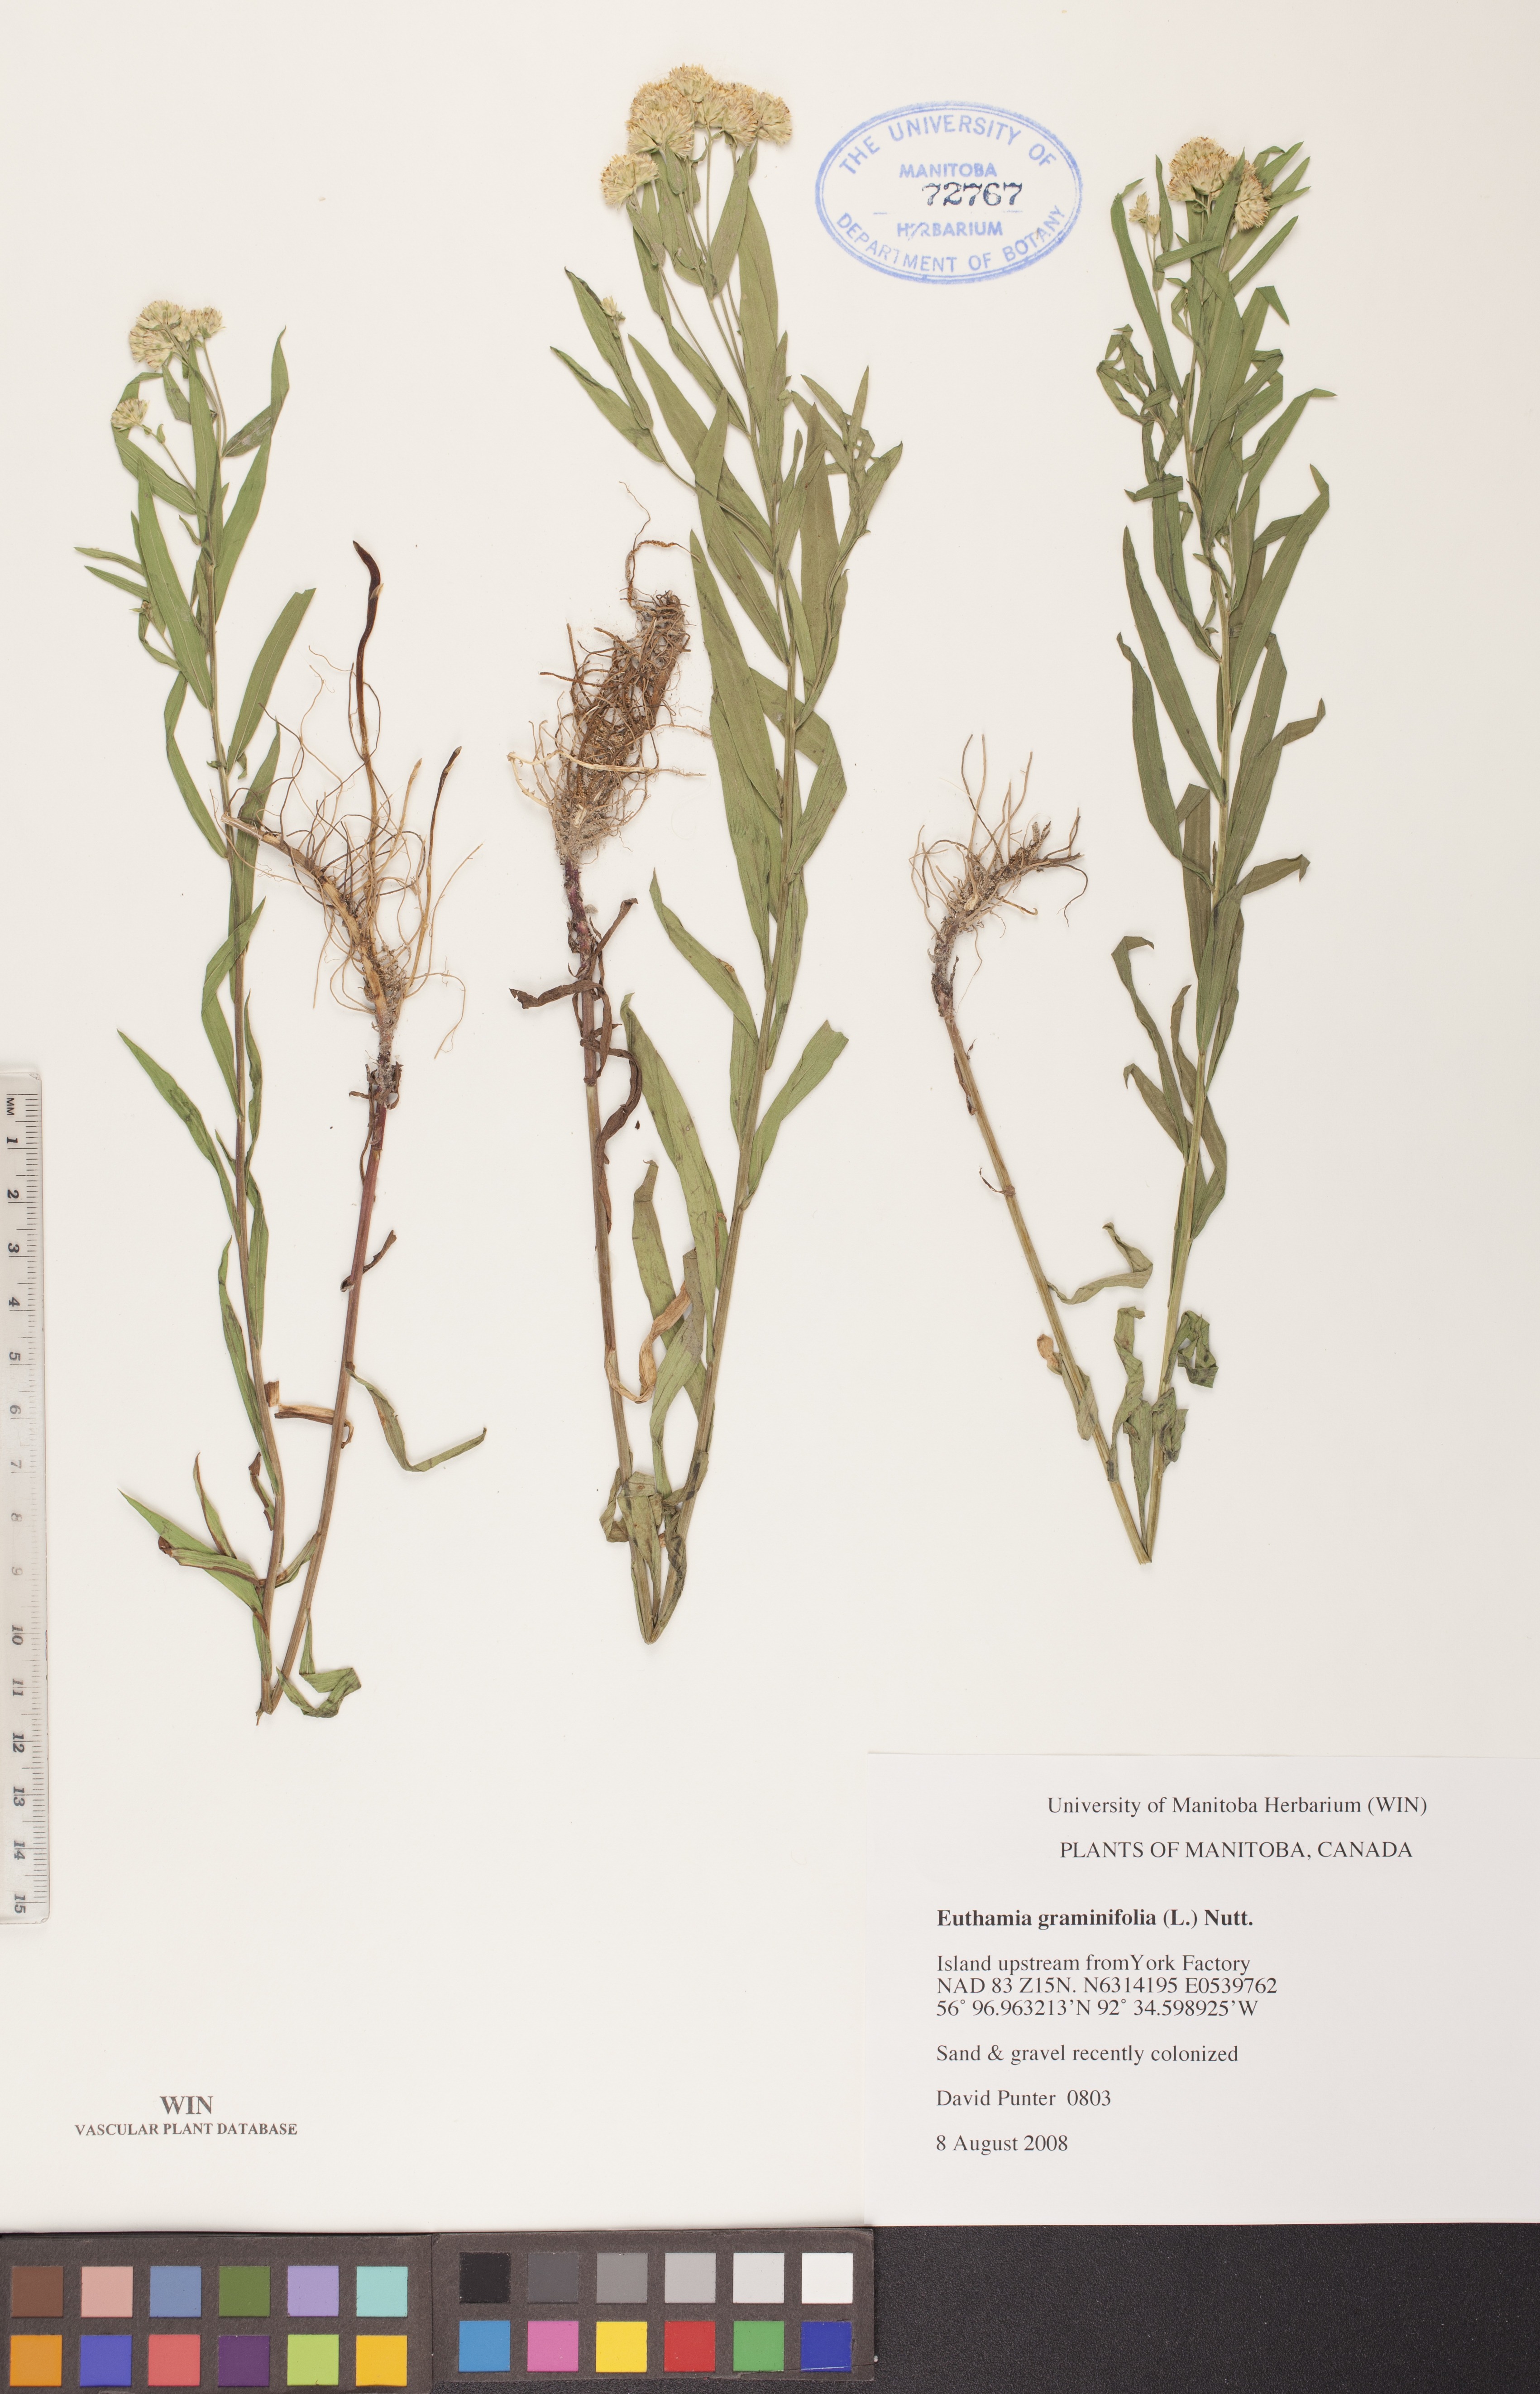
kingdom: Plantae
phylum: Tracheophyta
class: Magnoliopsida
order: Asterales
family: Asteraceae
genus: Euthamia
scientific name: Euthamia graminifolia
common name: Common goldentop
